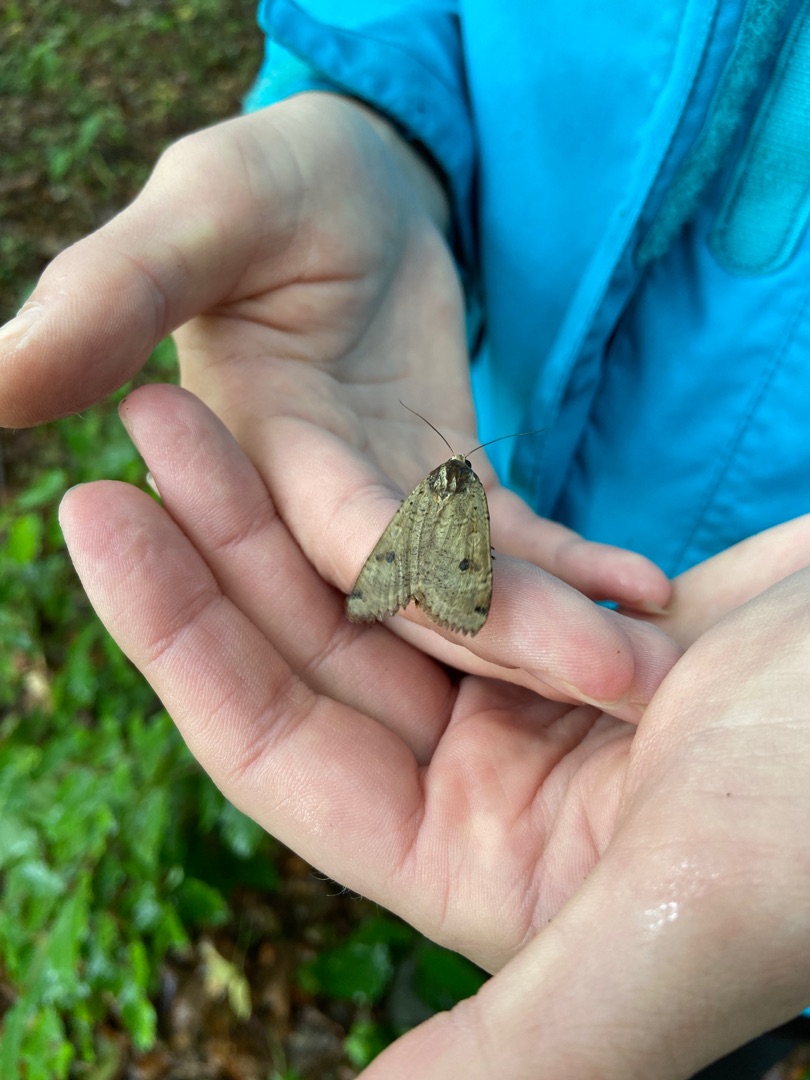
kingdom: Animalia
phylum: Arthropoda
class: Insecta
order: Lepidoptera
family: Noctuidae
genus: Noctua
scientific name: Noctua pronuba
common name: Stor smutugle
